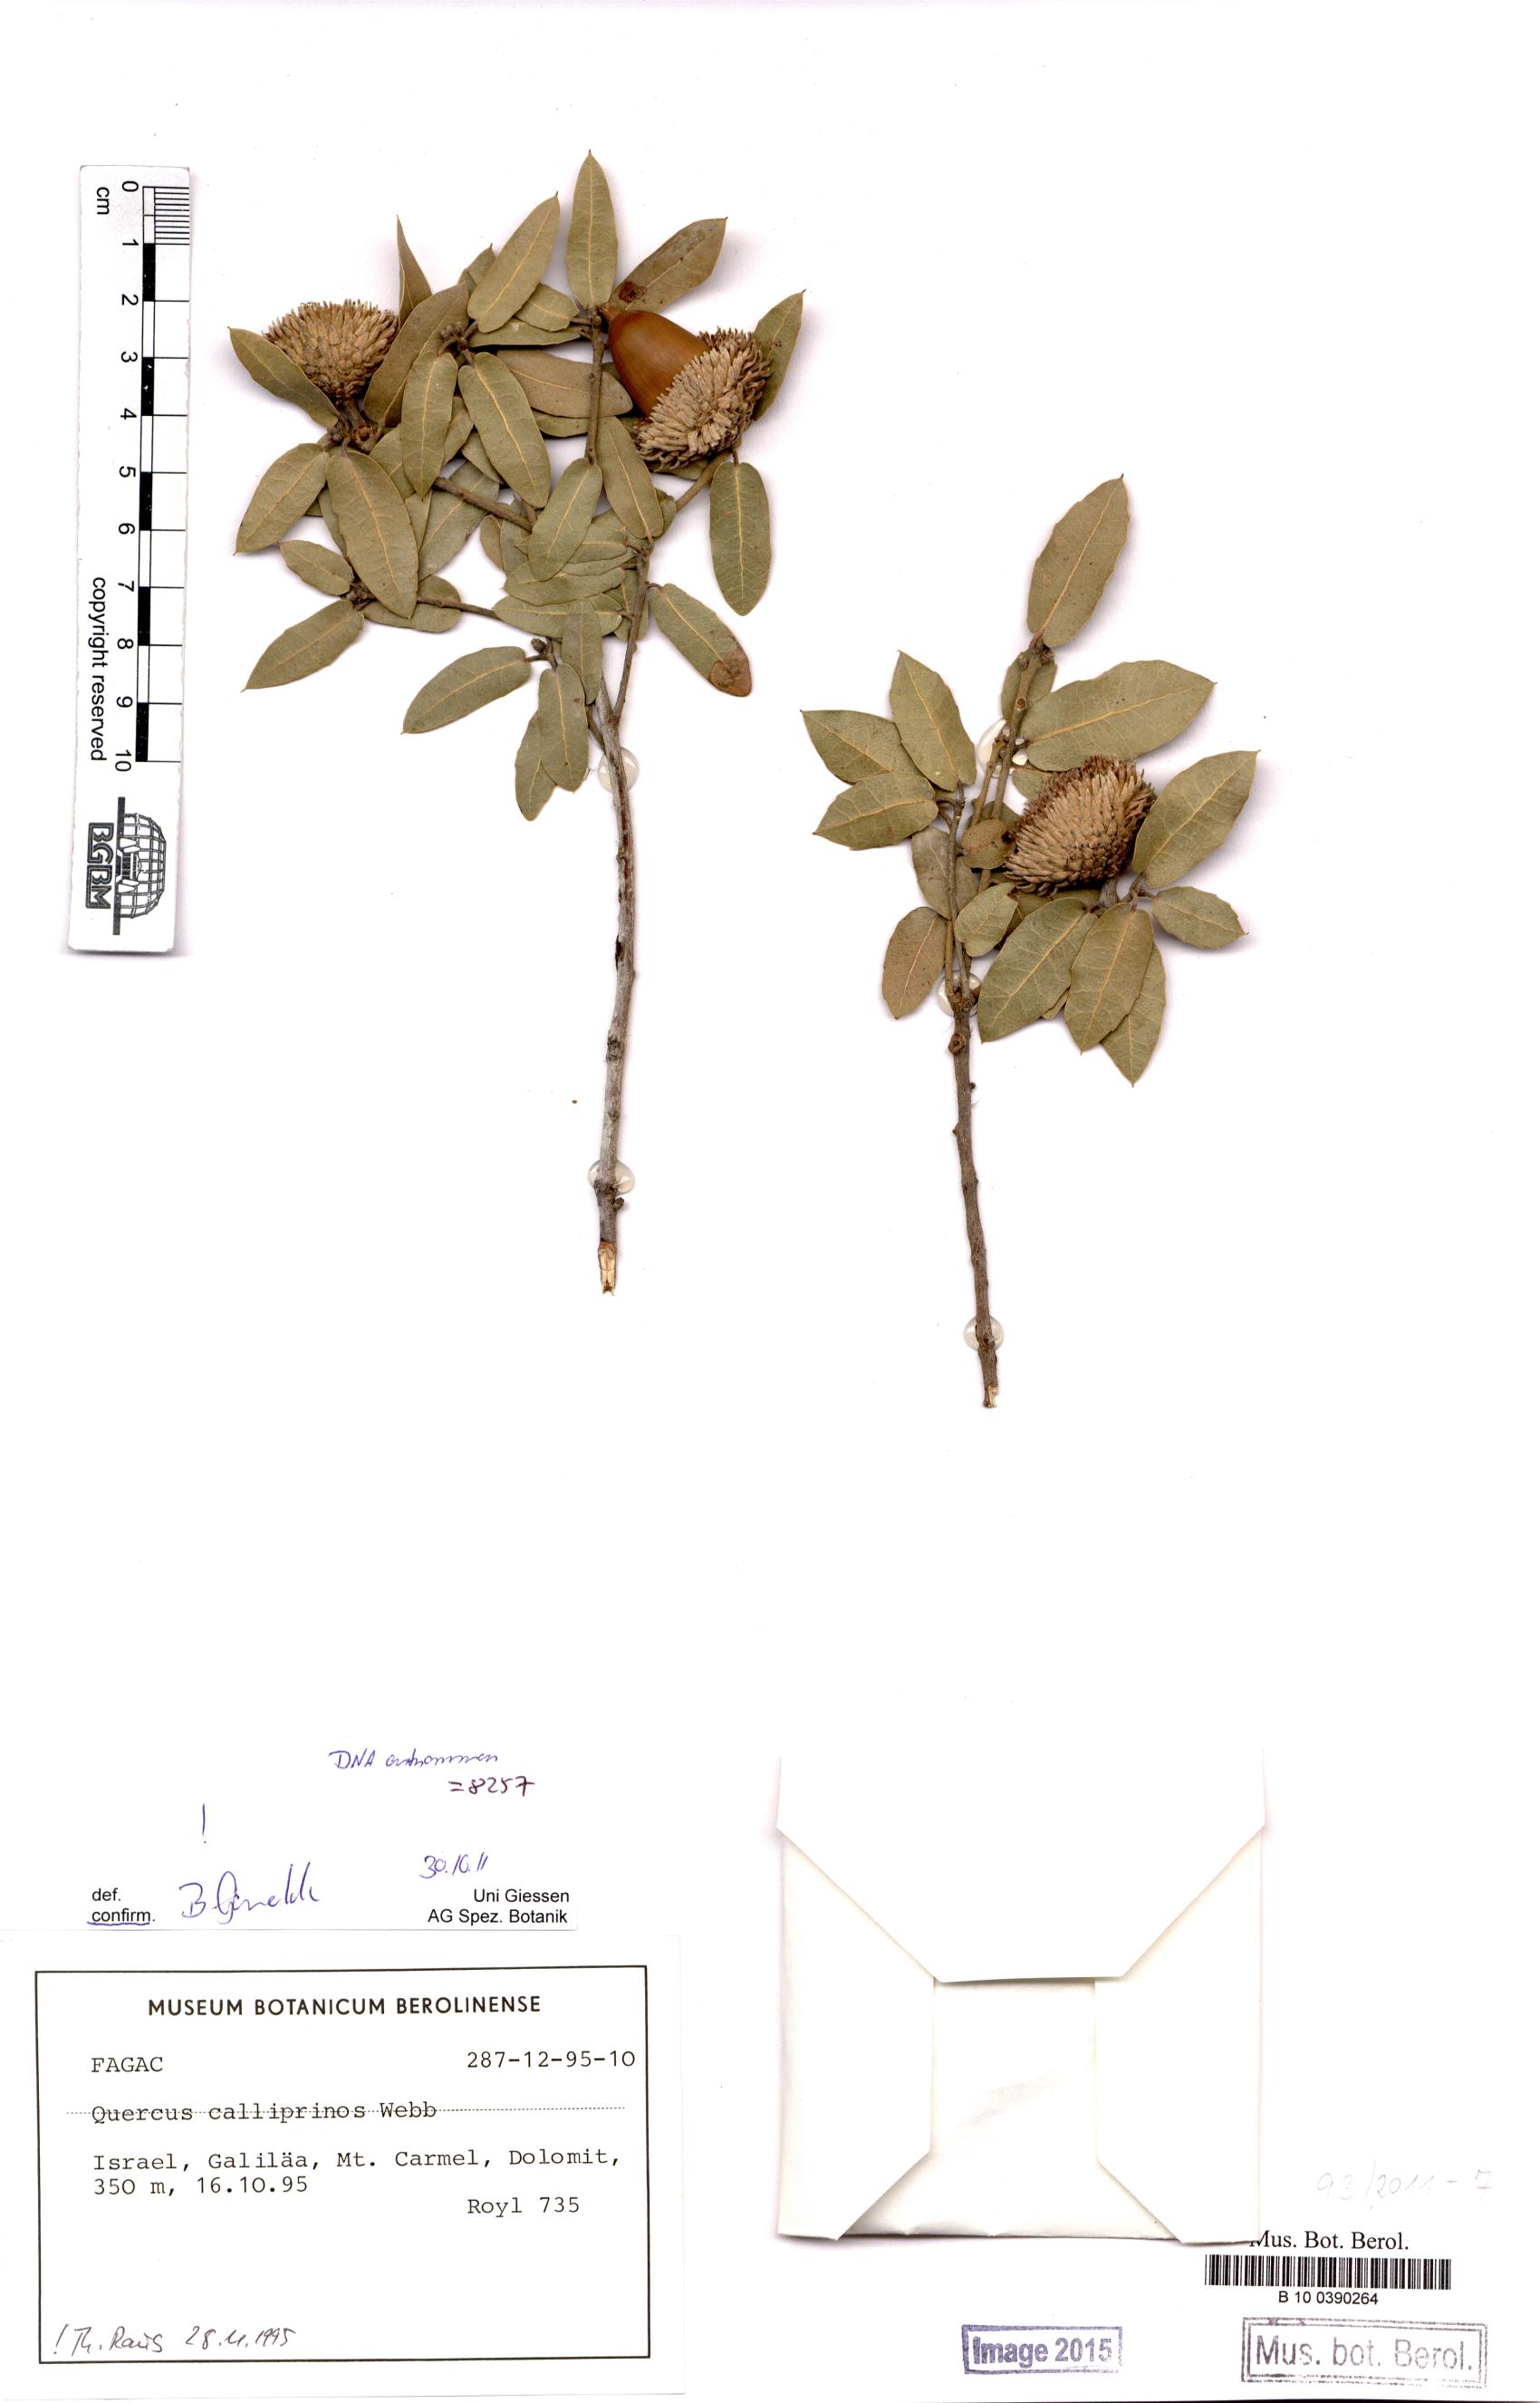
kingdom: Plantae
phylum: Tracheophyta
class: Magnoliopsida
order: Fagales
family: Fagaceae
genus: Quercus
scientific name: Quercus coccifera
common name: Kermes oak
